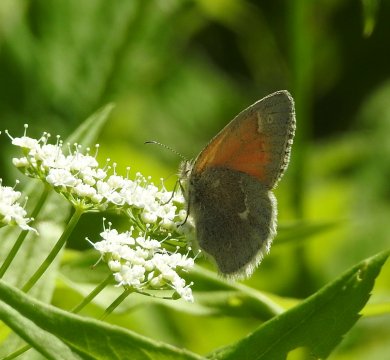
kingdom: Animalia
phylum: Arthropoda
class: Insecta
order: Lepidoptera
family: Nymphalidae
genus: Coenonympha
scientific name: Coenonympha tullia
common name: Large Heath
